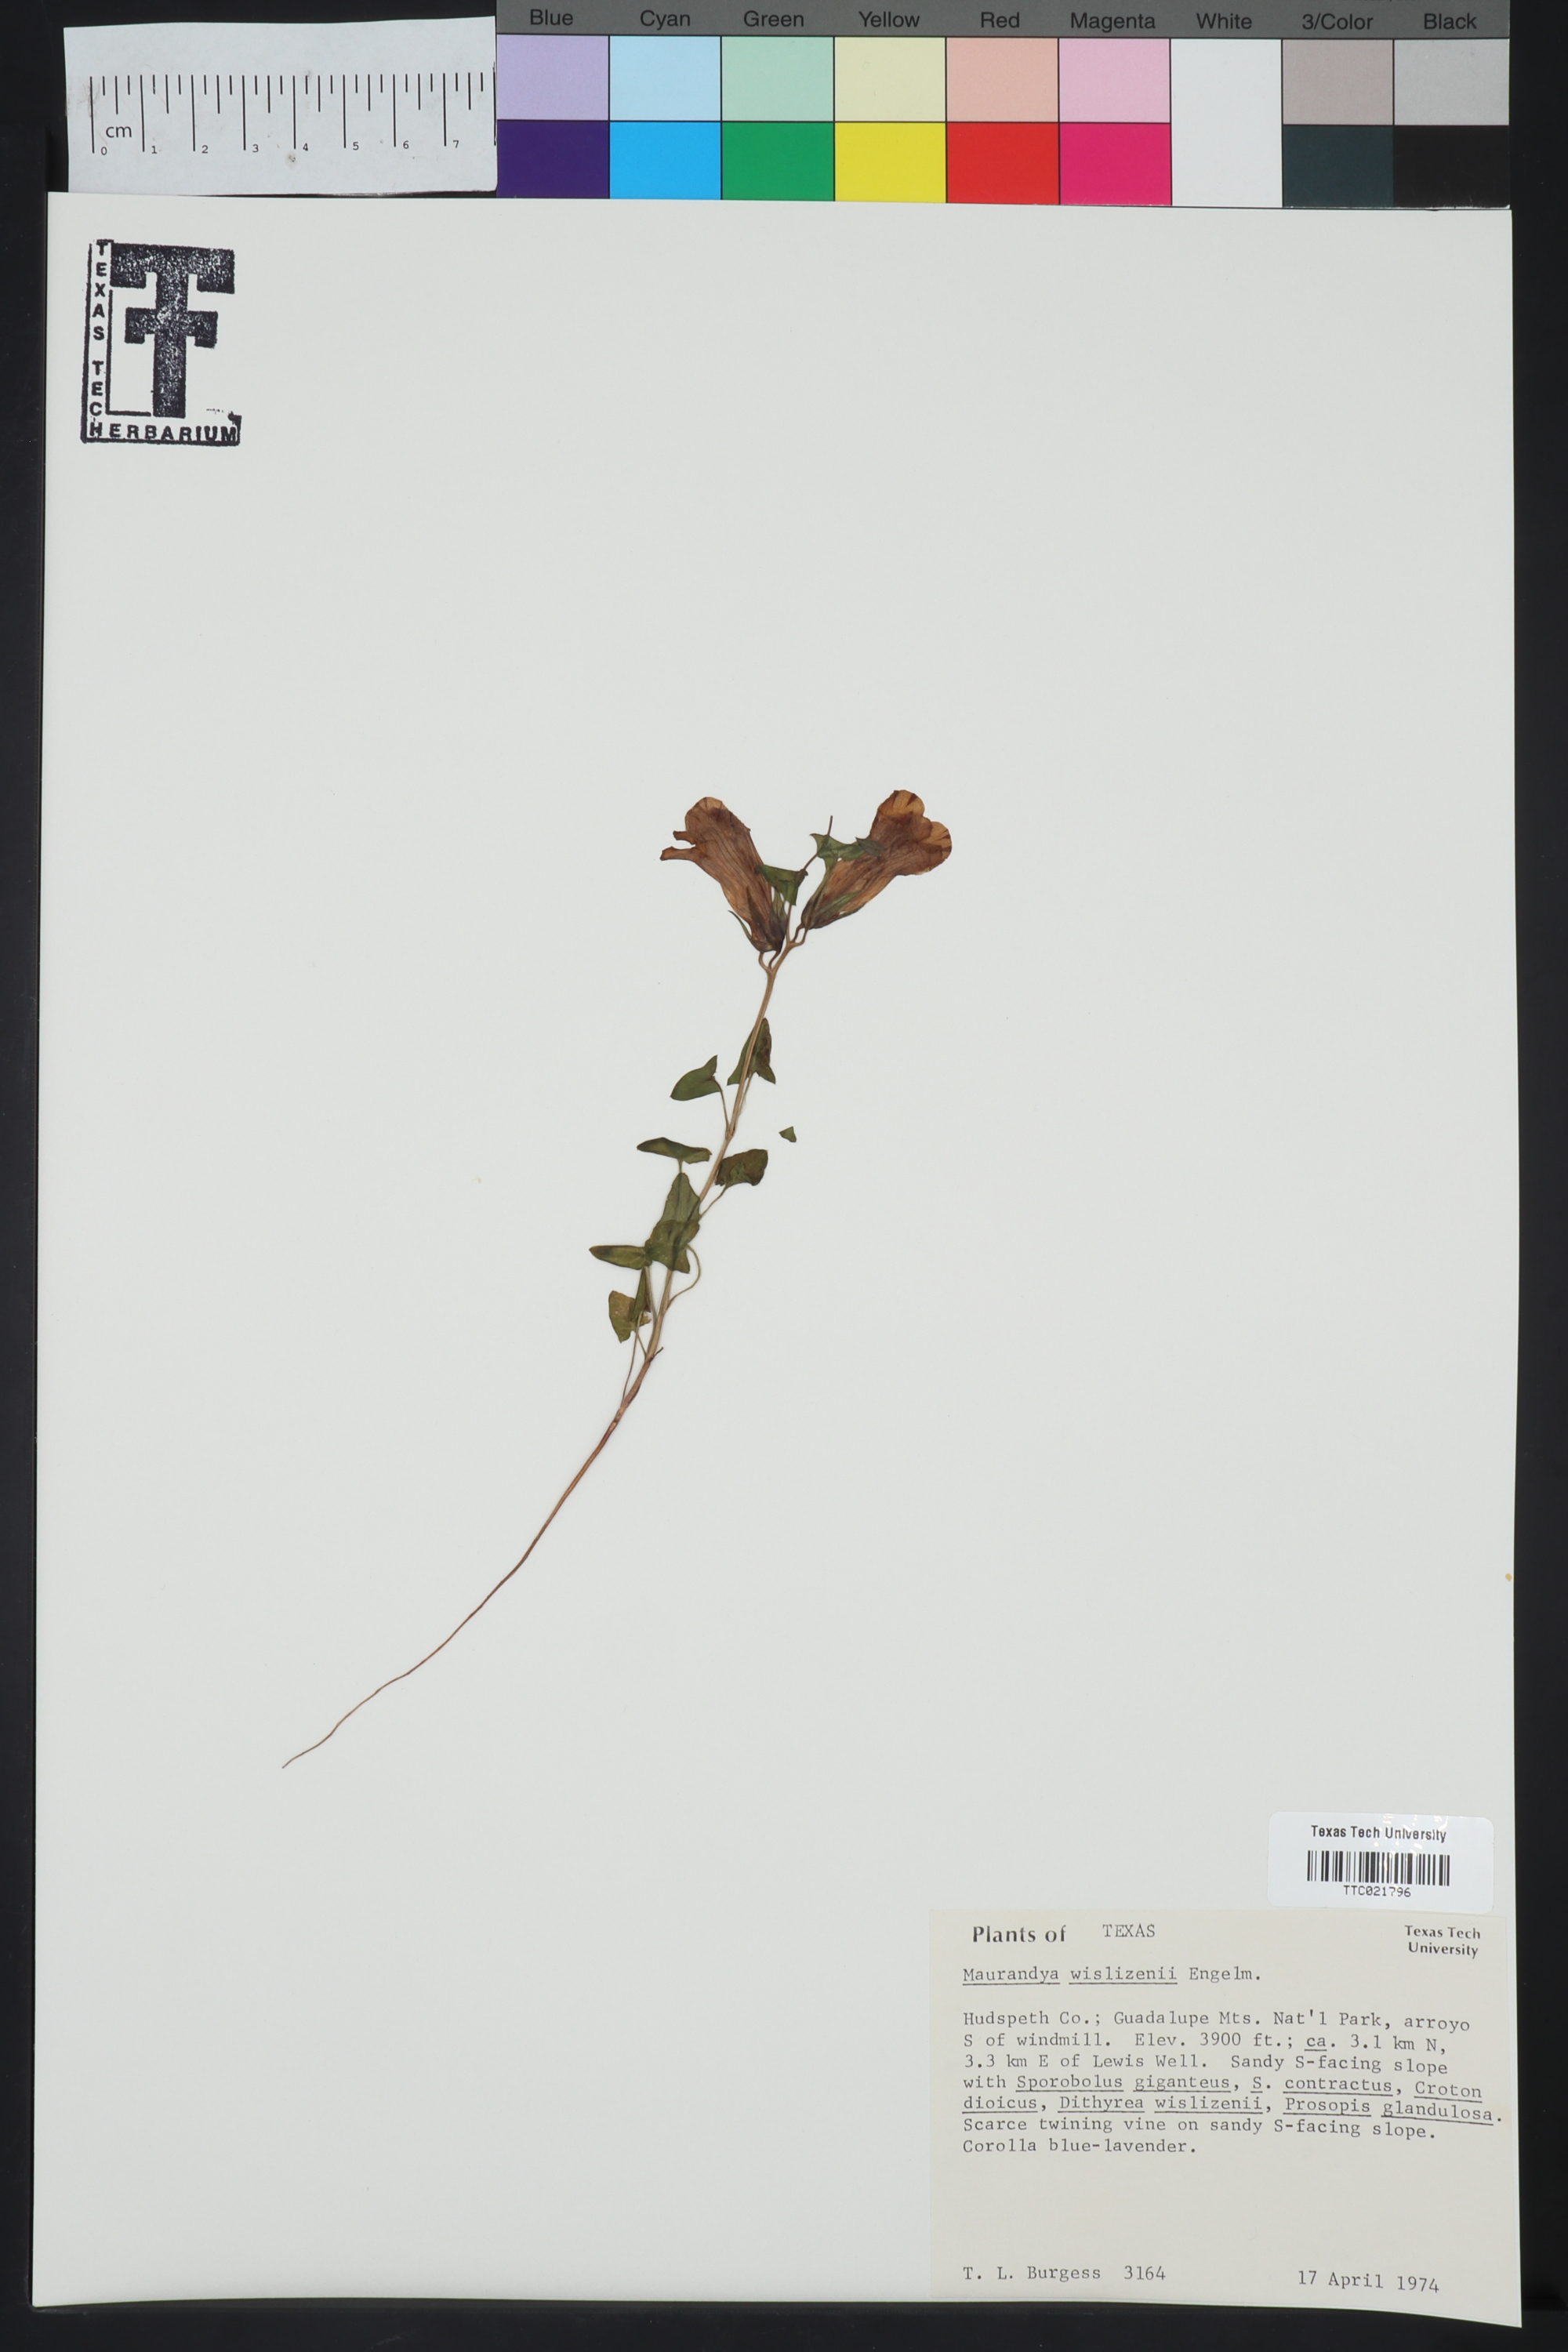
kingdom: Plantae
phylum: Tracheophyta
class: Magnoliopsida
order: Lamiales
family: Plantaginaceae
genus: Epixiphium
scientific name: Epixiphium wislizeni
